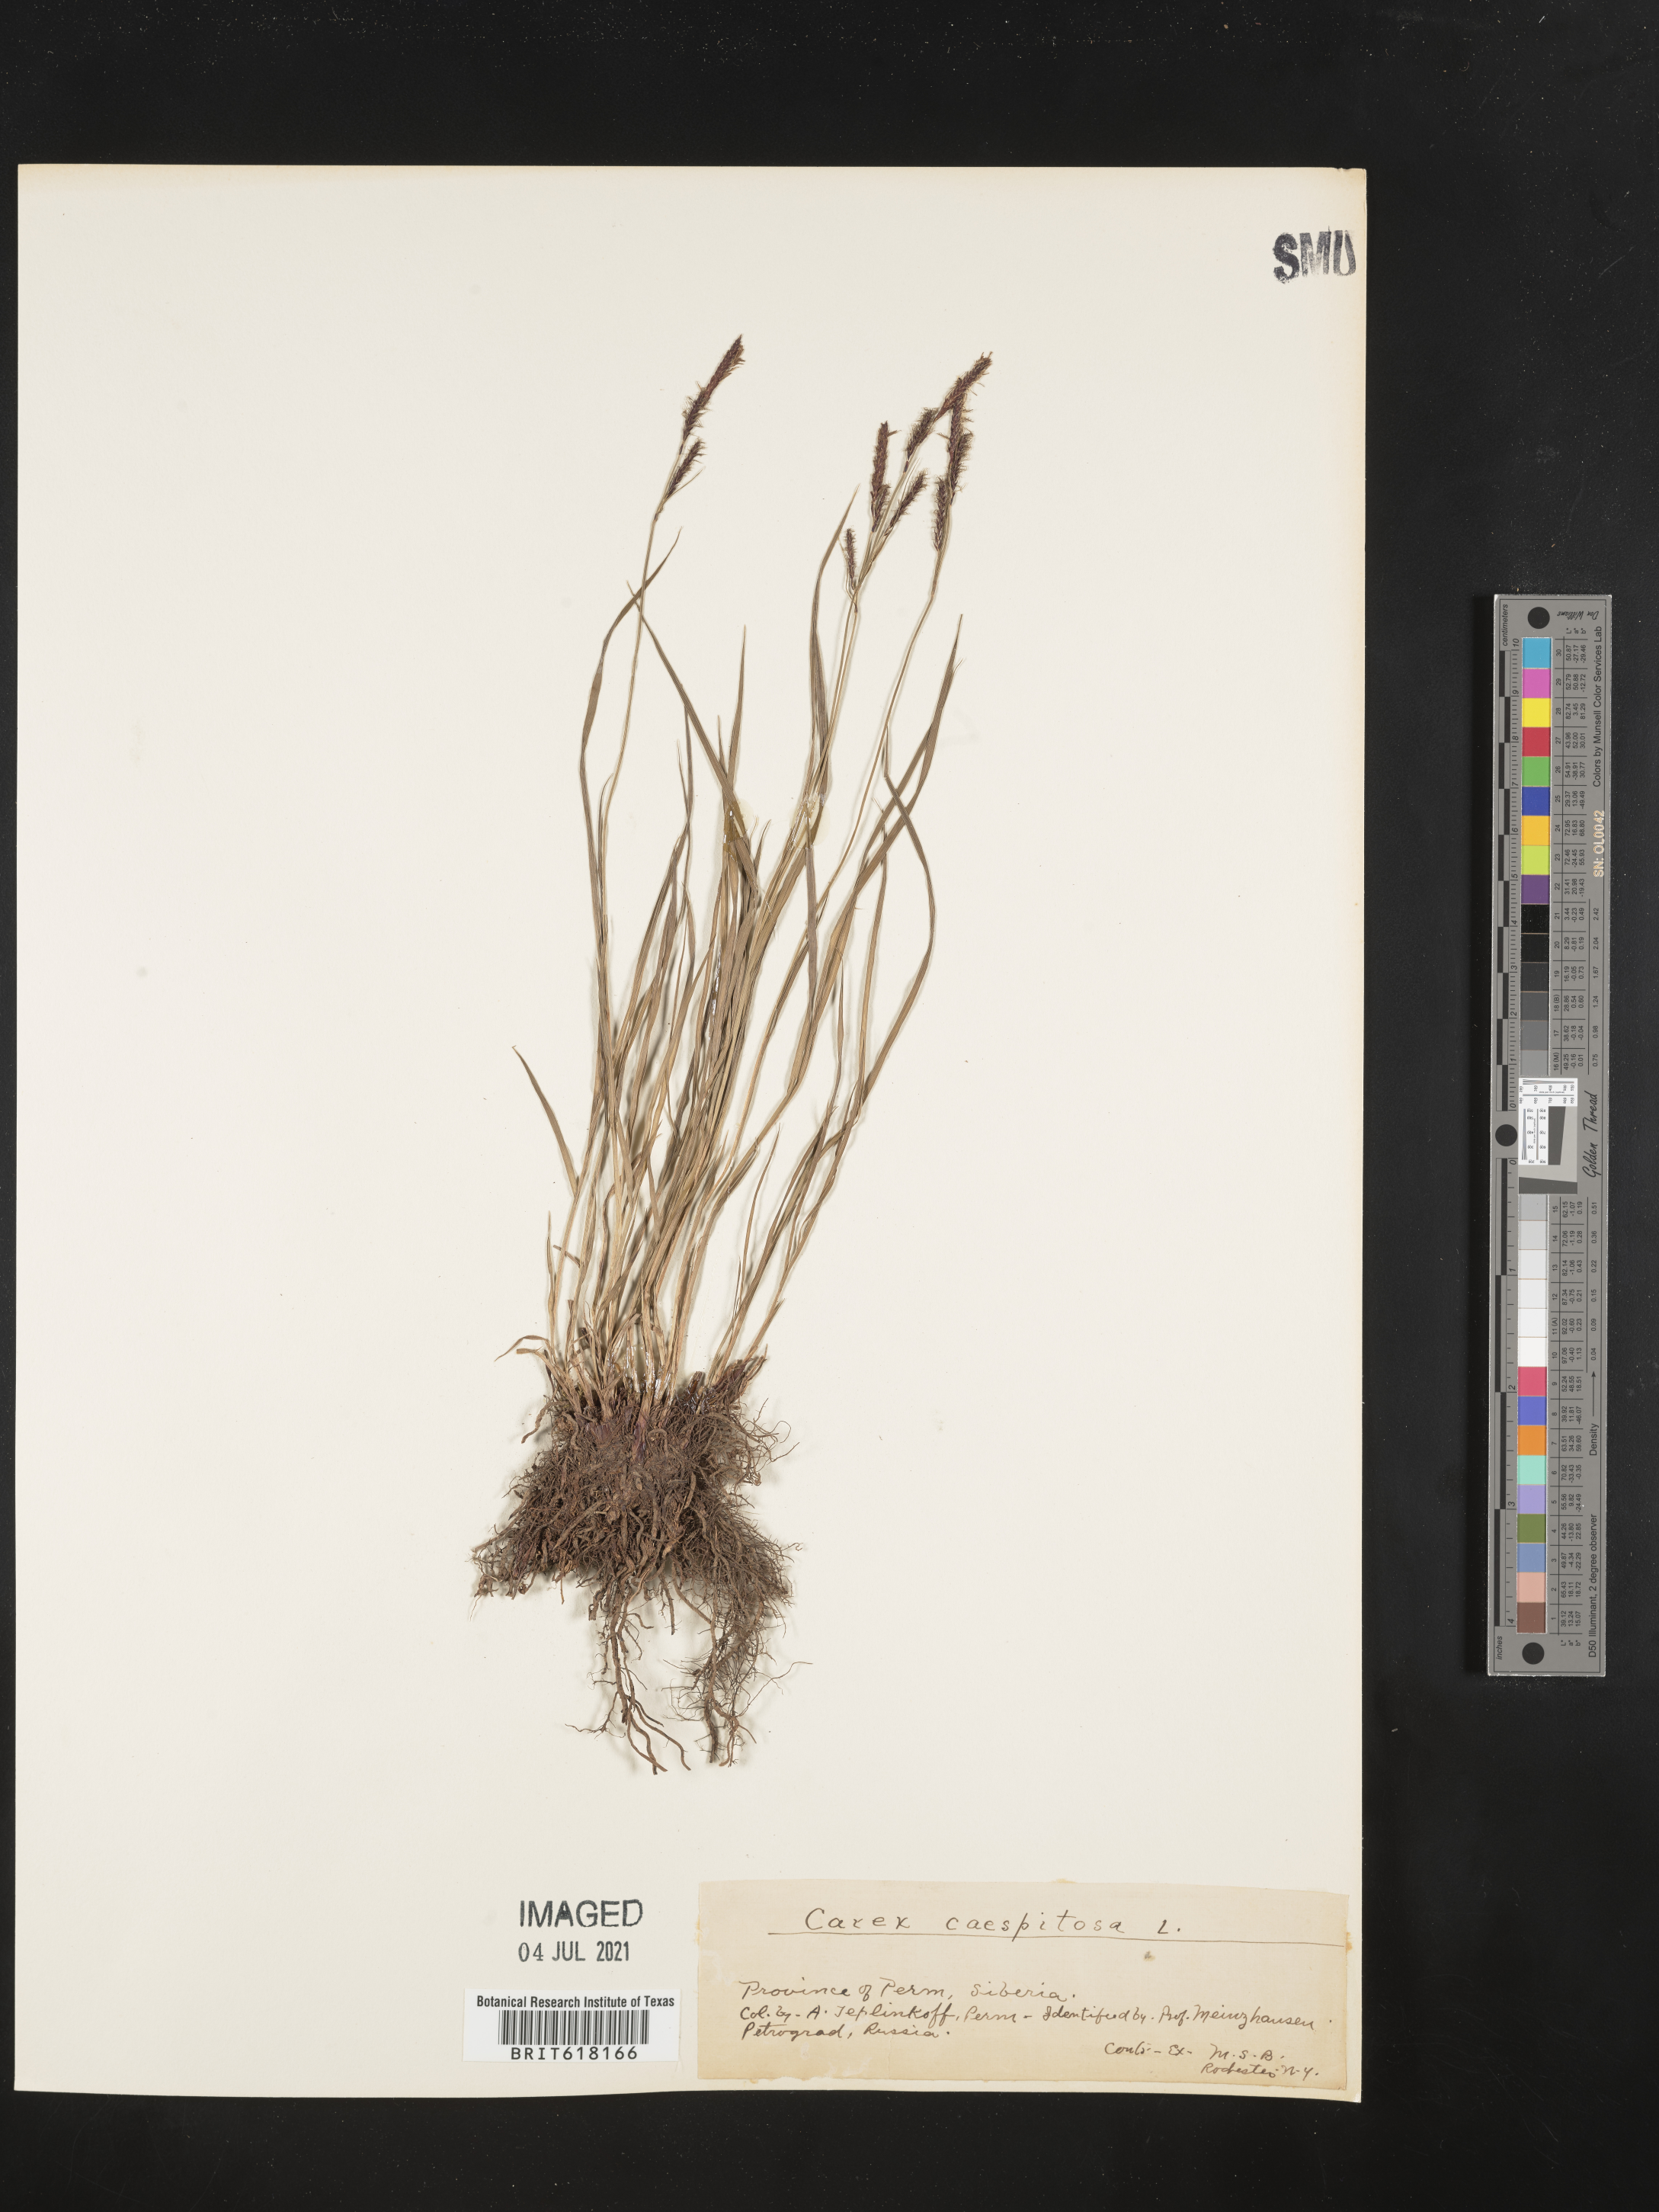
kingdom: Plantae
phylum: Tracheophyta
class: Liliopsida
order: Poales
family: Cyperaceae
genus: Carex
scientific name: Carex cespitosa
